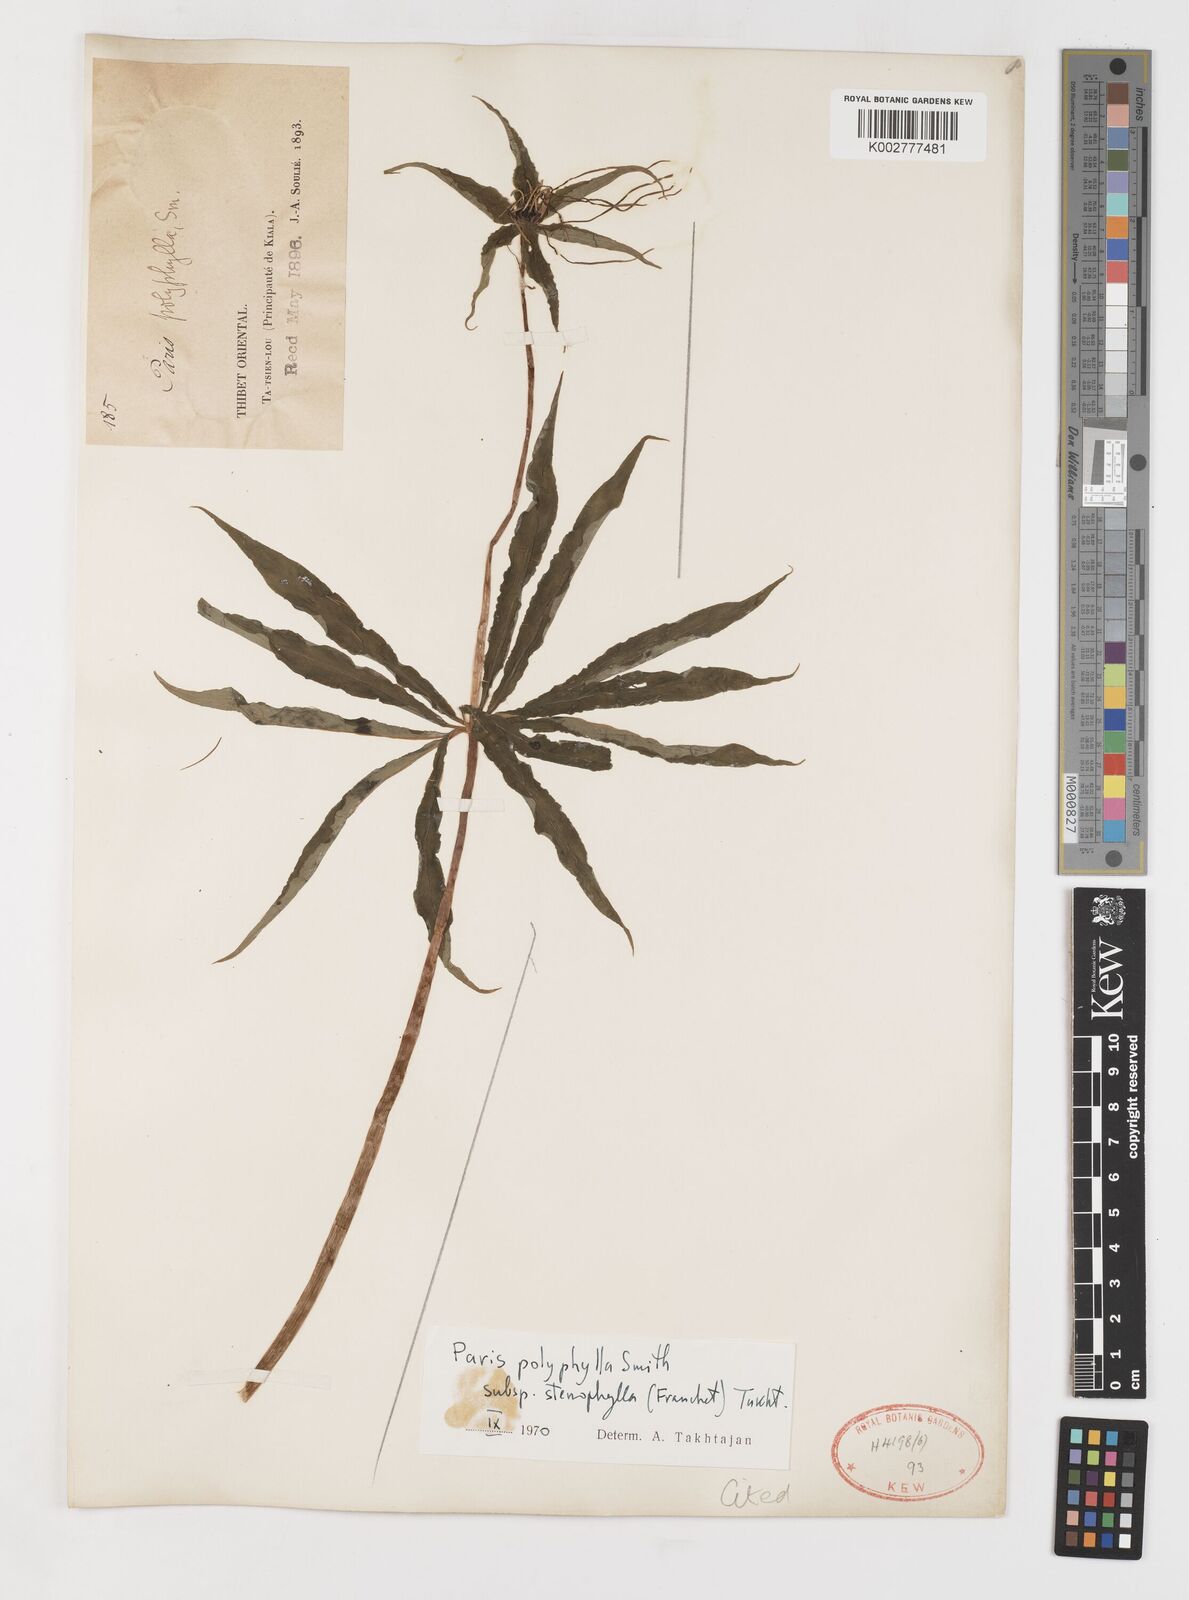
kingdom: Plantae
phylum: Tracheophyta
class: Liliopsida
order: Liliales
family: Melanthiaceae
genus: Paris
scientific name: Paris lancifolia
